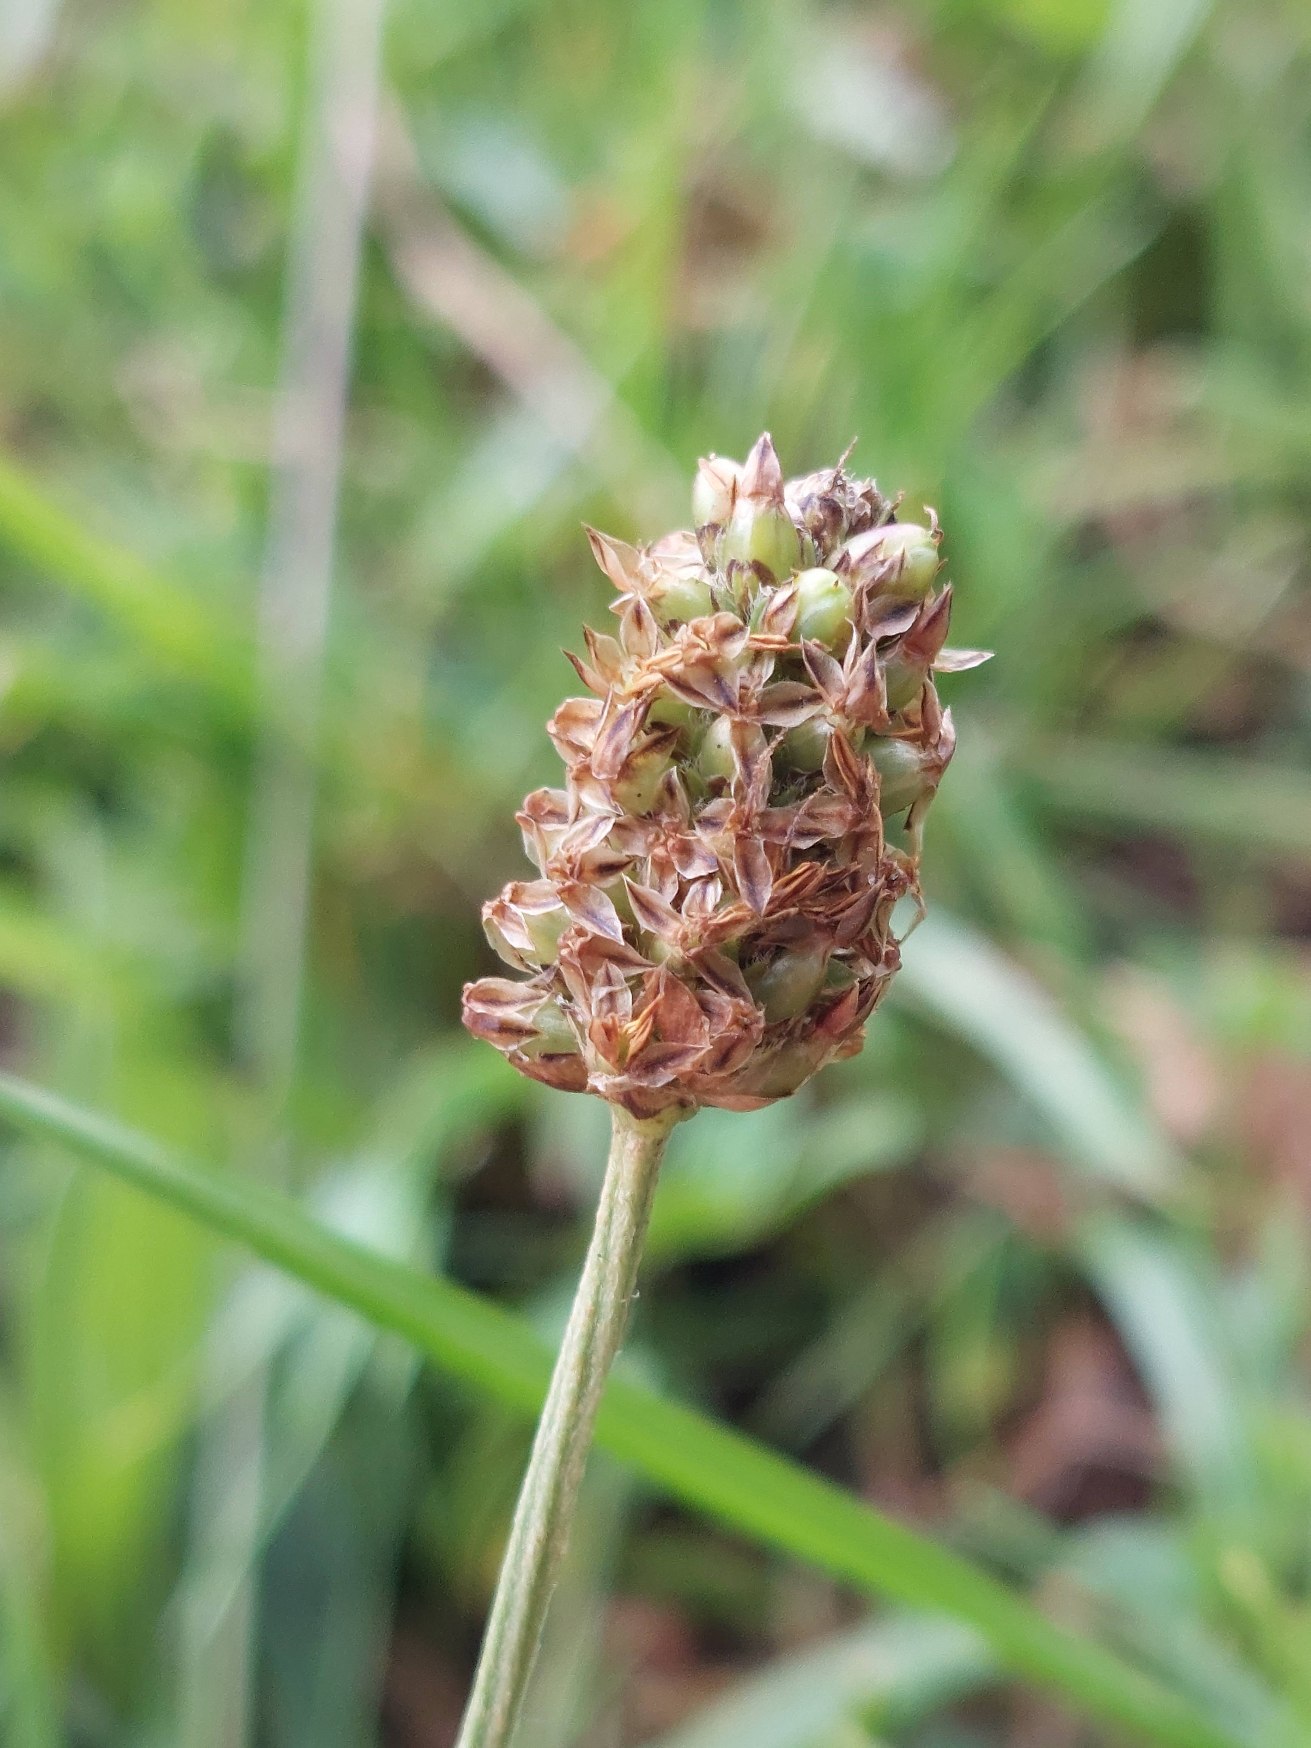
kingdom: Plantae
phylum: Tracheophyta
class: Magnoliopsida
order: Lamiales
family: Plantaginaceae
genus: Plantago
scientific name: Plantago lanceolata
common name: Lancet-vejbred
